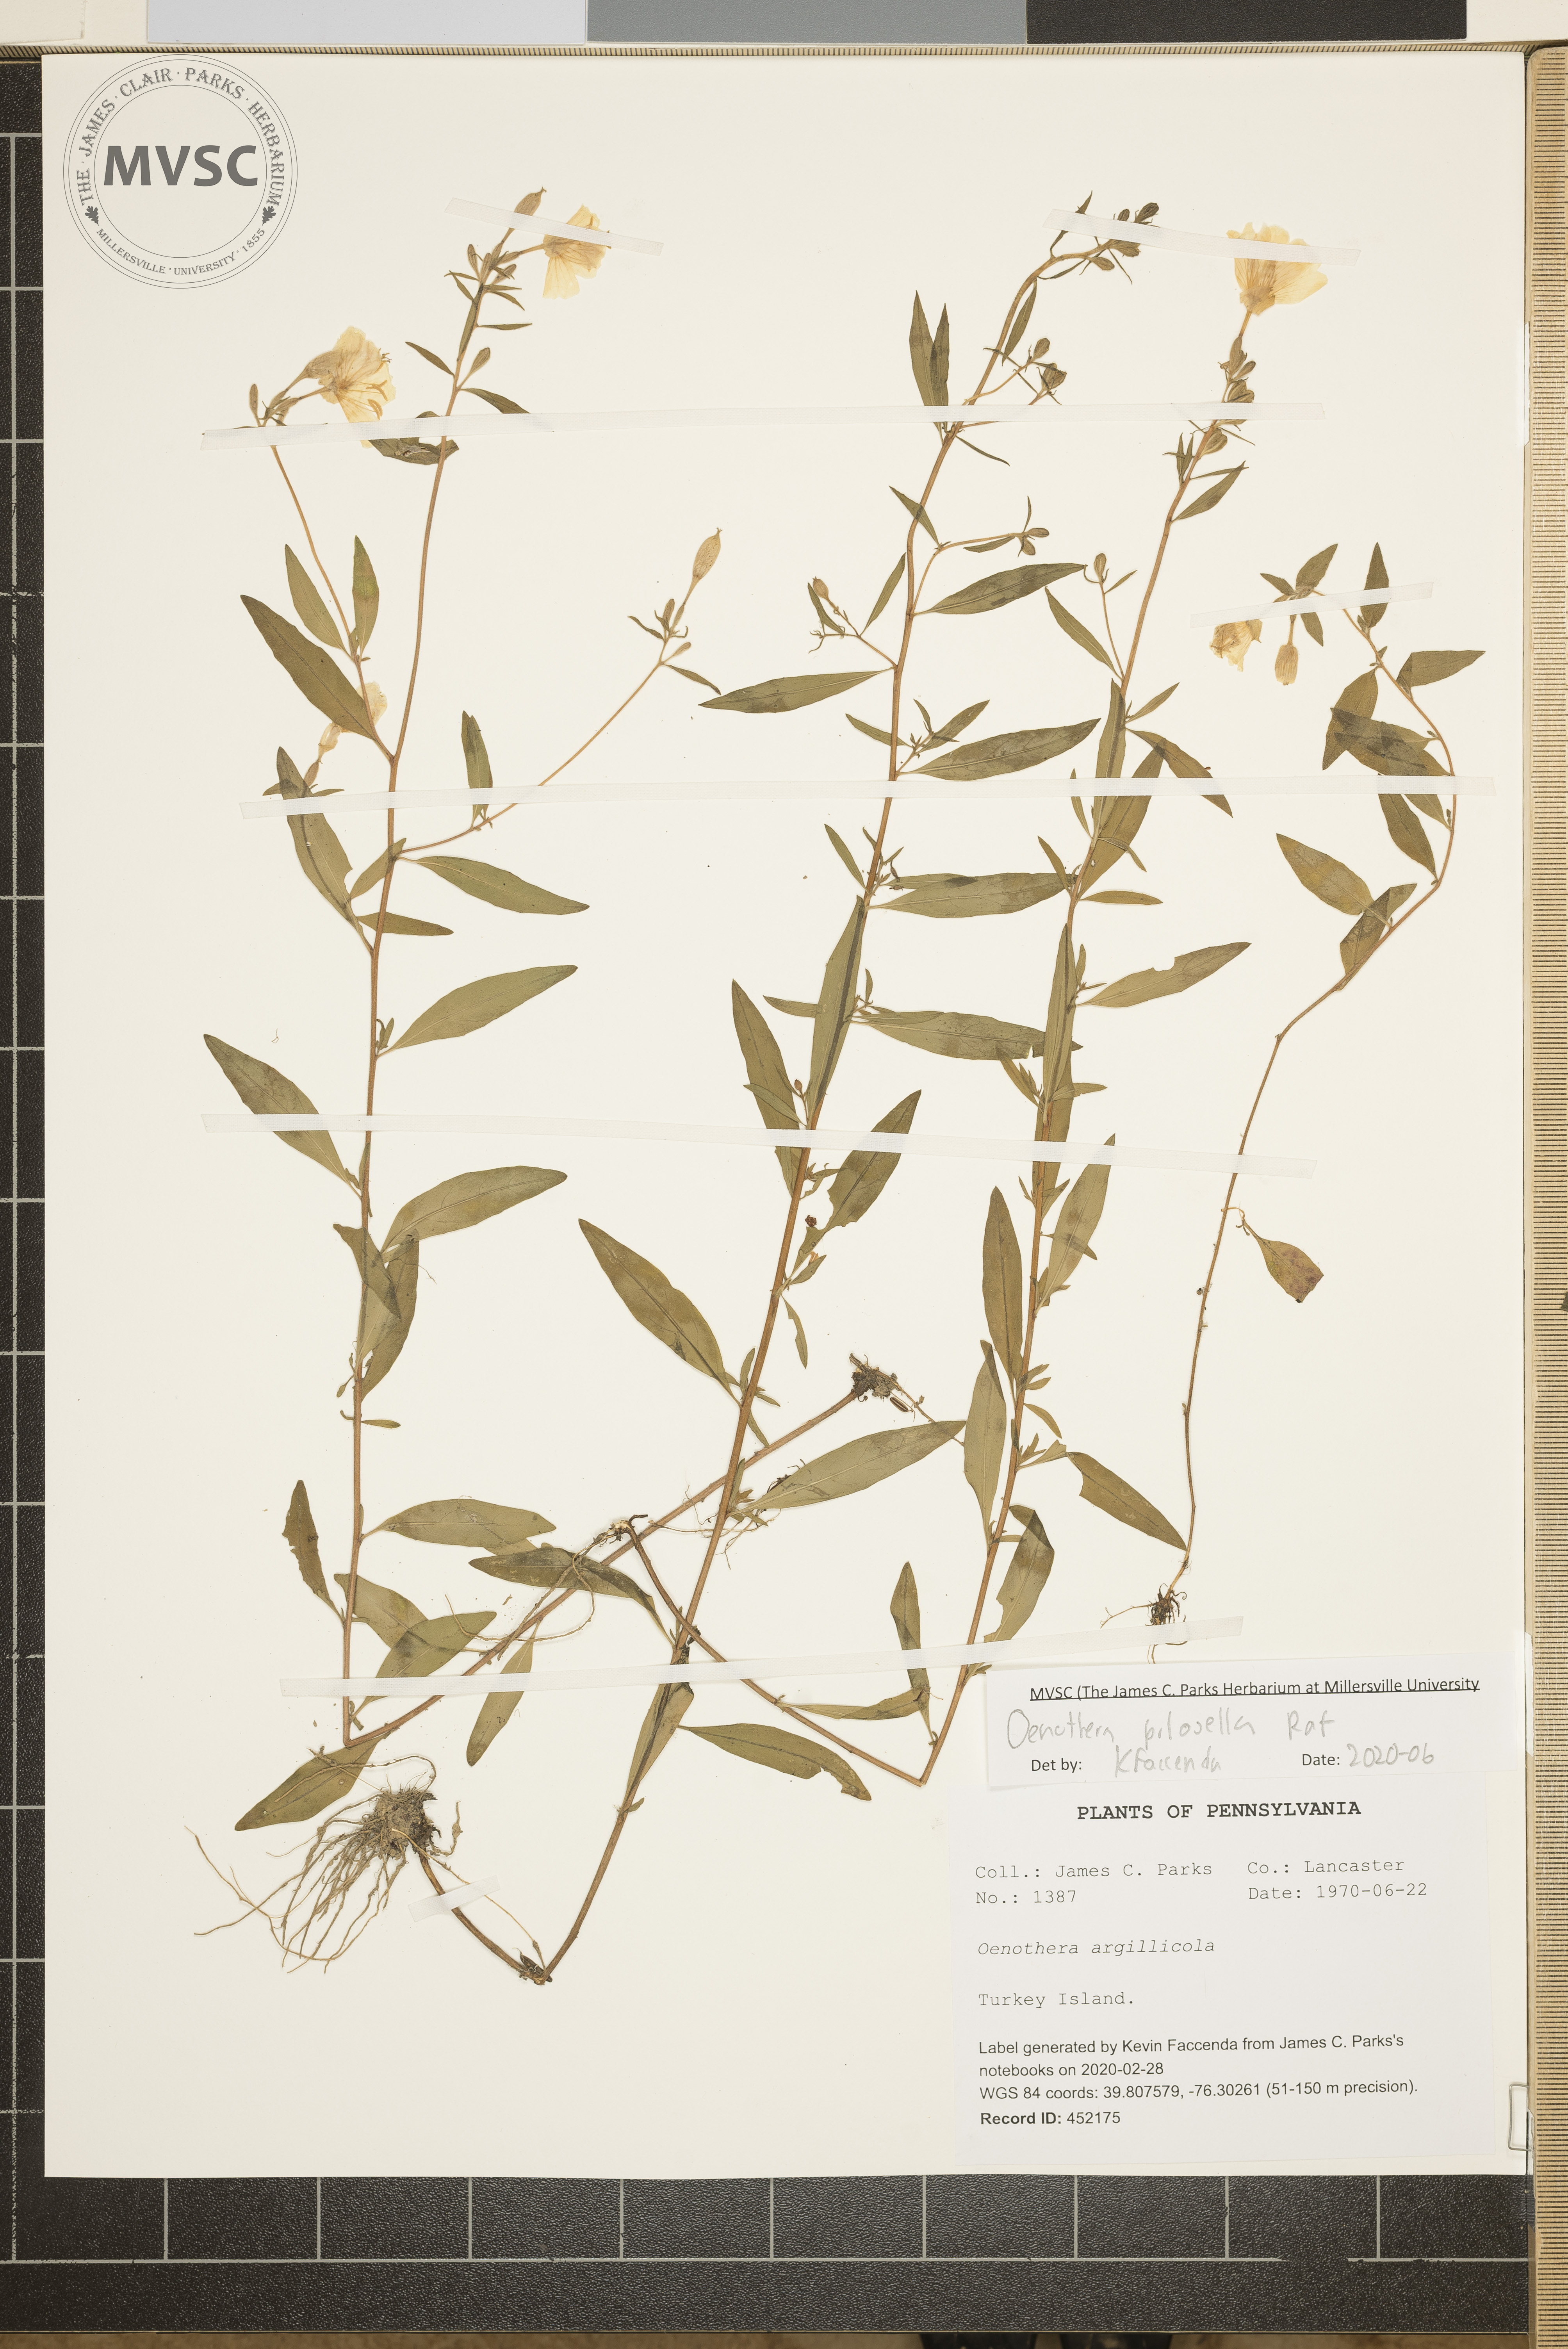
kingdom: Plantae
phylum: Tracheophyta
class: Magnoliopsida
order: Myrtales
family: Onagraceae
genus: Oenothera
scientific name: Oenothera pilosella
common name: Finely-pilose evening-primrose
